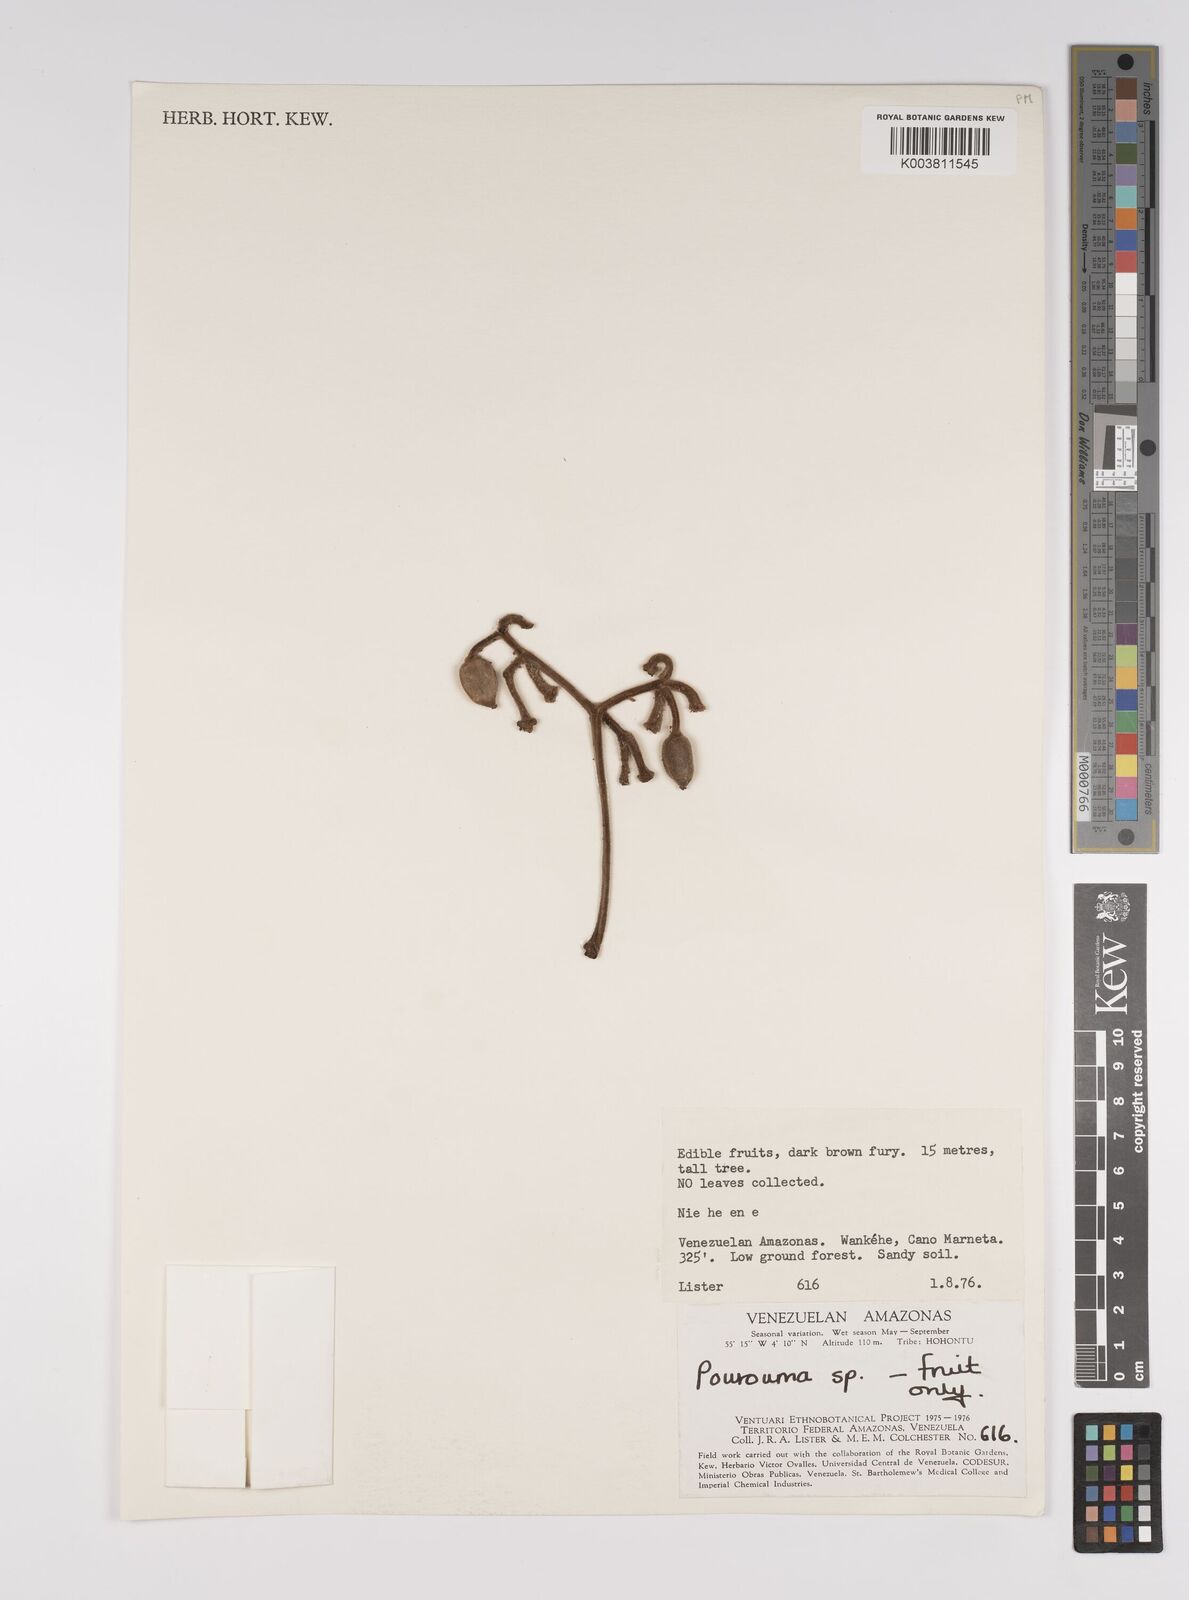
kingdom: Plantae
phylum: Tracheophyta
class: Magnoliopsida
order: Rosales
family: Urticaceae
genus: Pourouma
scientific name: Pourouma
